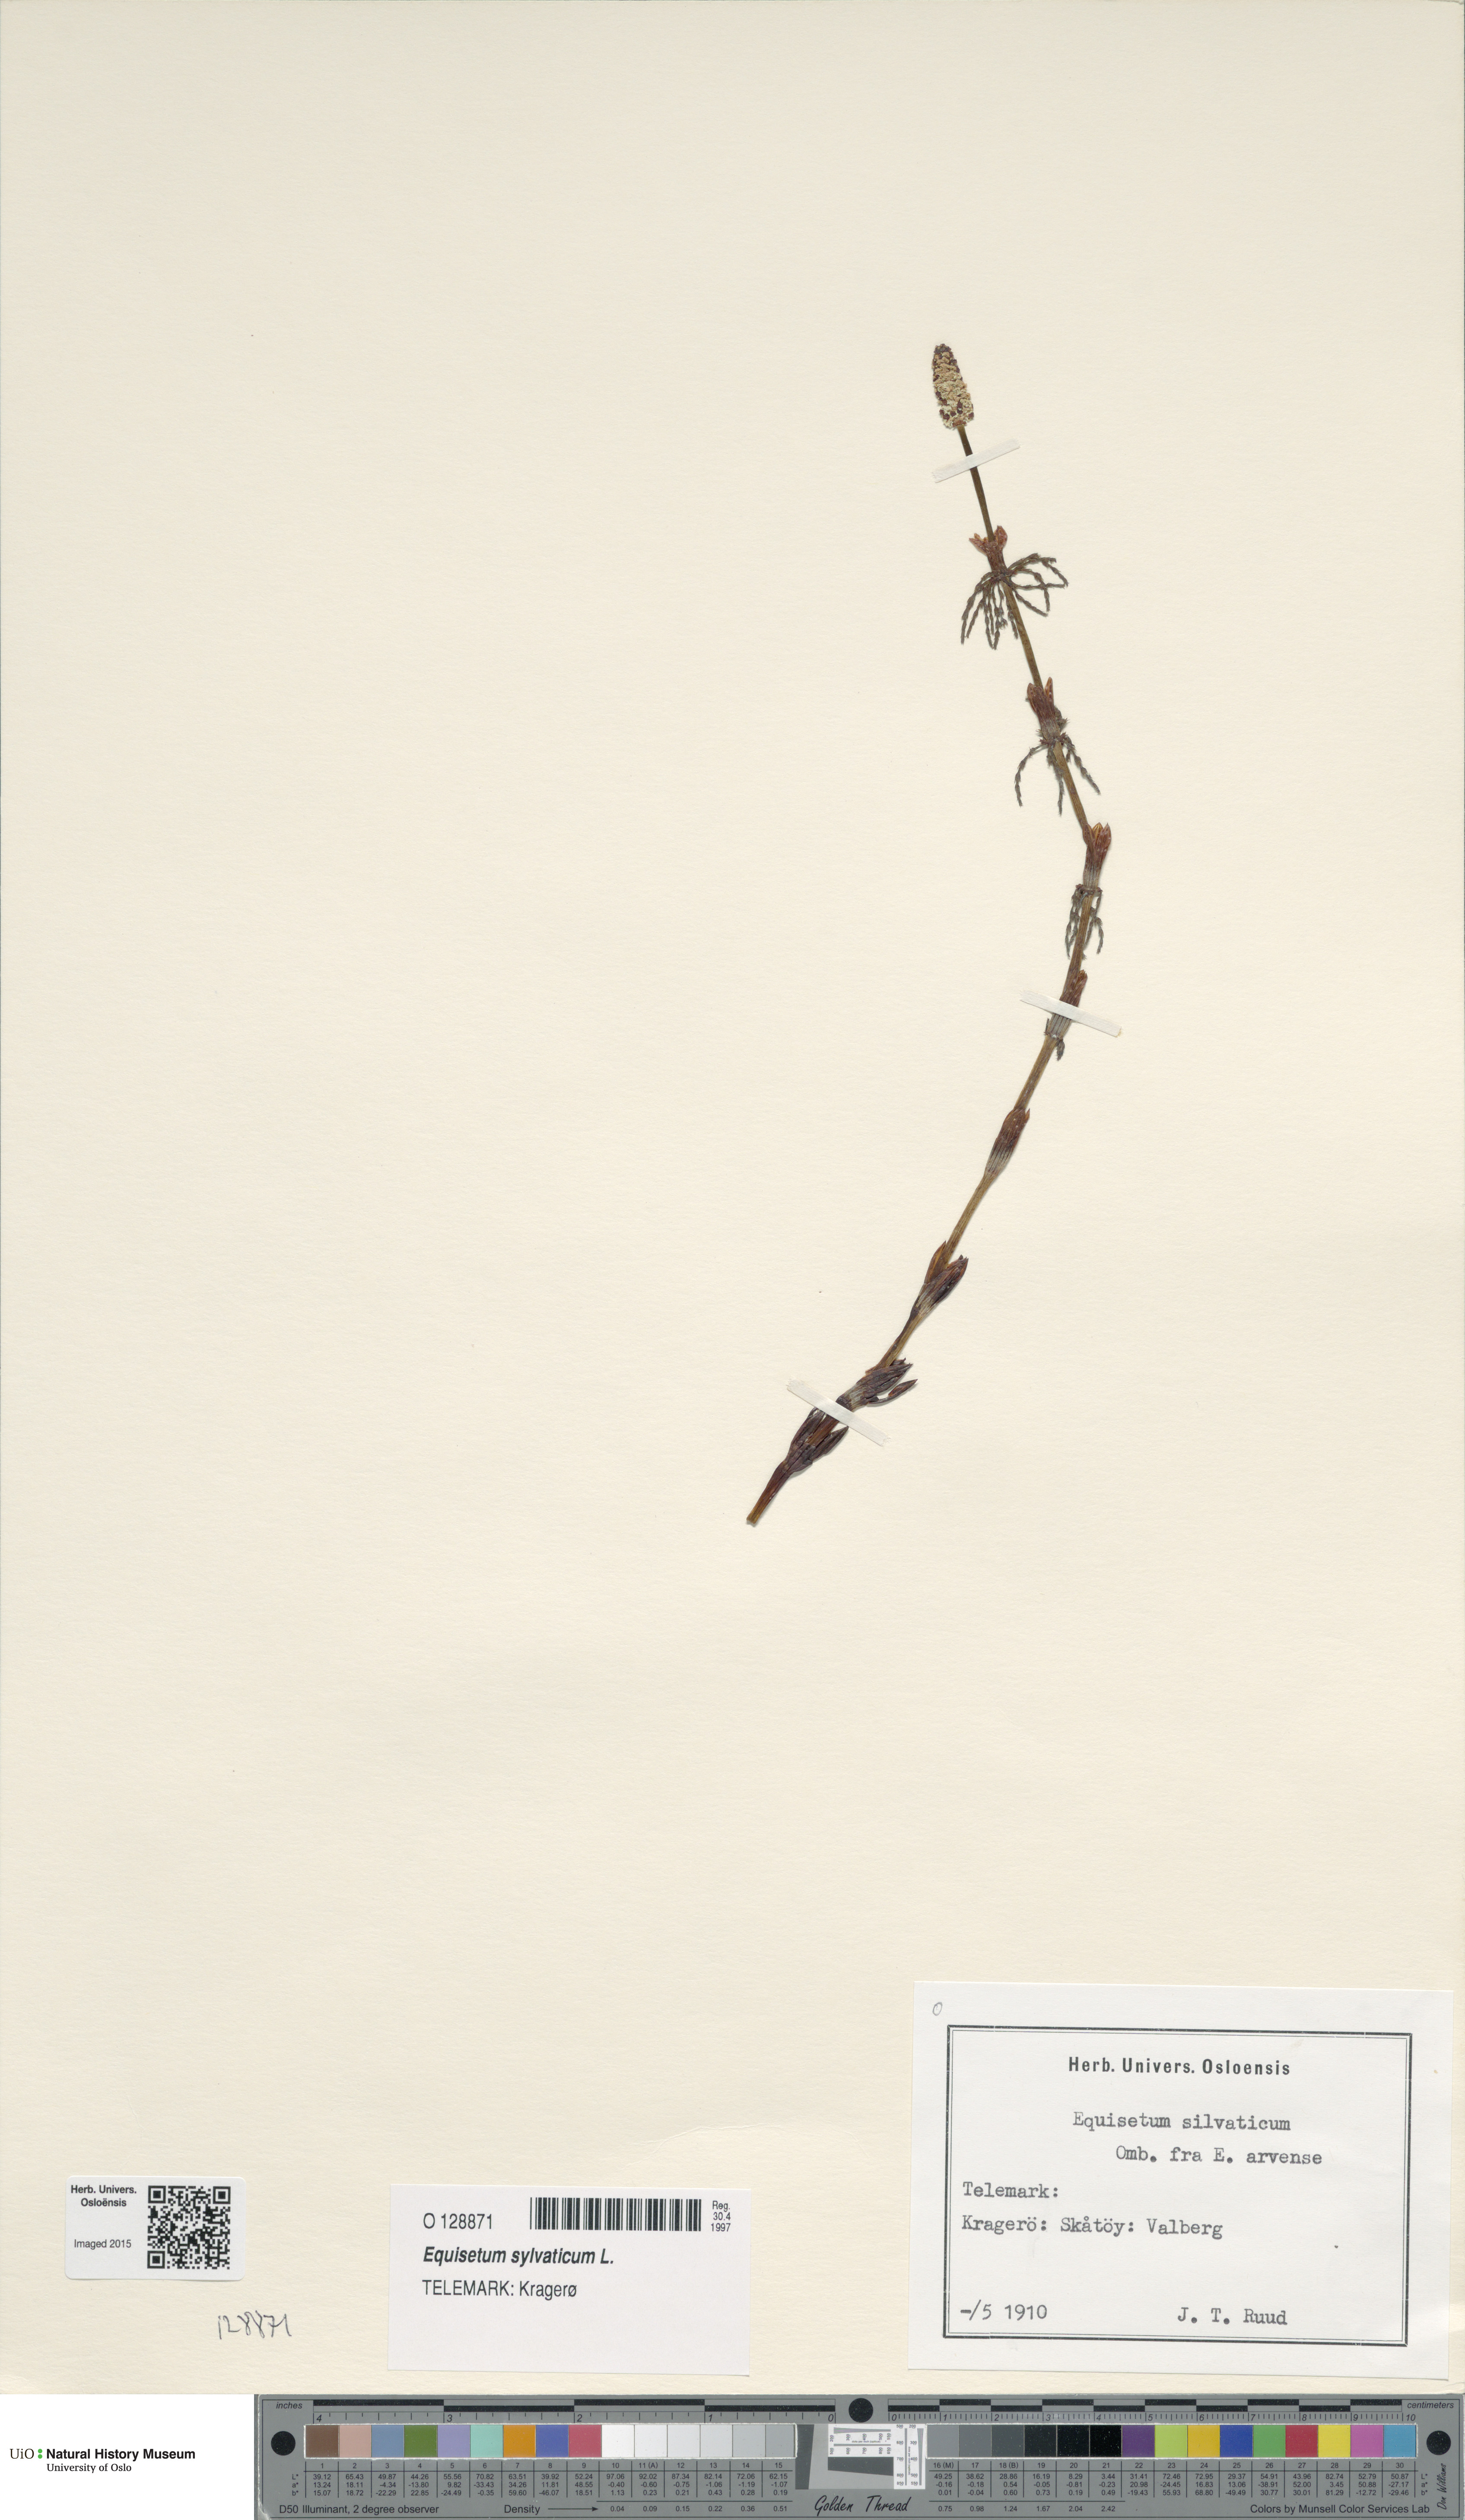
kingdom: Plantae
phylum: Tracheophyta
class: Polypodiopsida
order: Equisetales
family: Equisetaceae
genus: Equisetum
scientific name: Equisetum sylvaticum
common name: Wood horsetail
